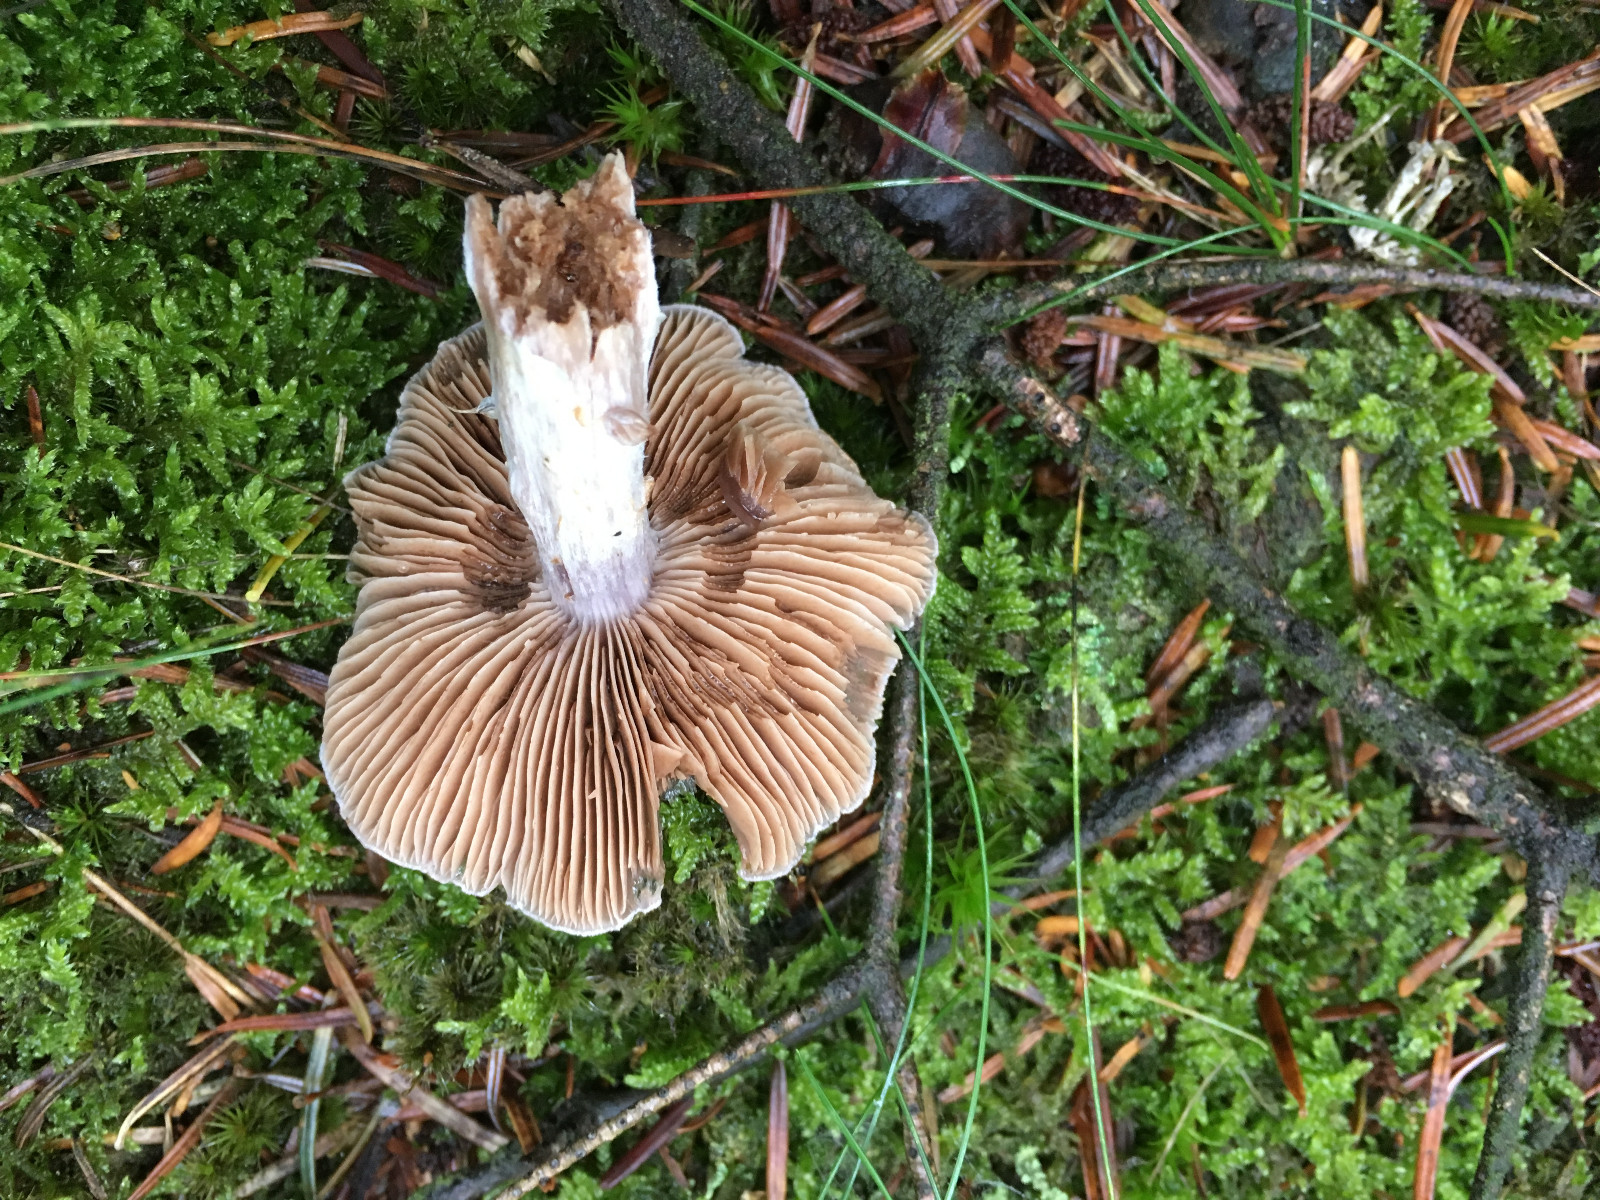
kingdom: Fungi
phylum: Basidiomycota
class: Agaricomycetes
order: Agaricales
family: Cortinariaceae
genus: Cortinarius
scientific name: Cortinarius
